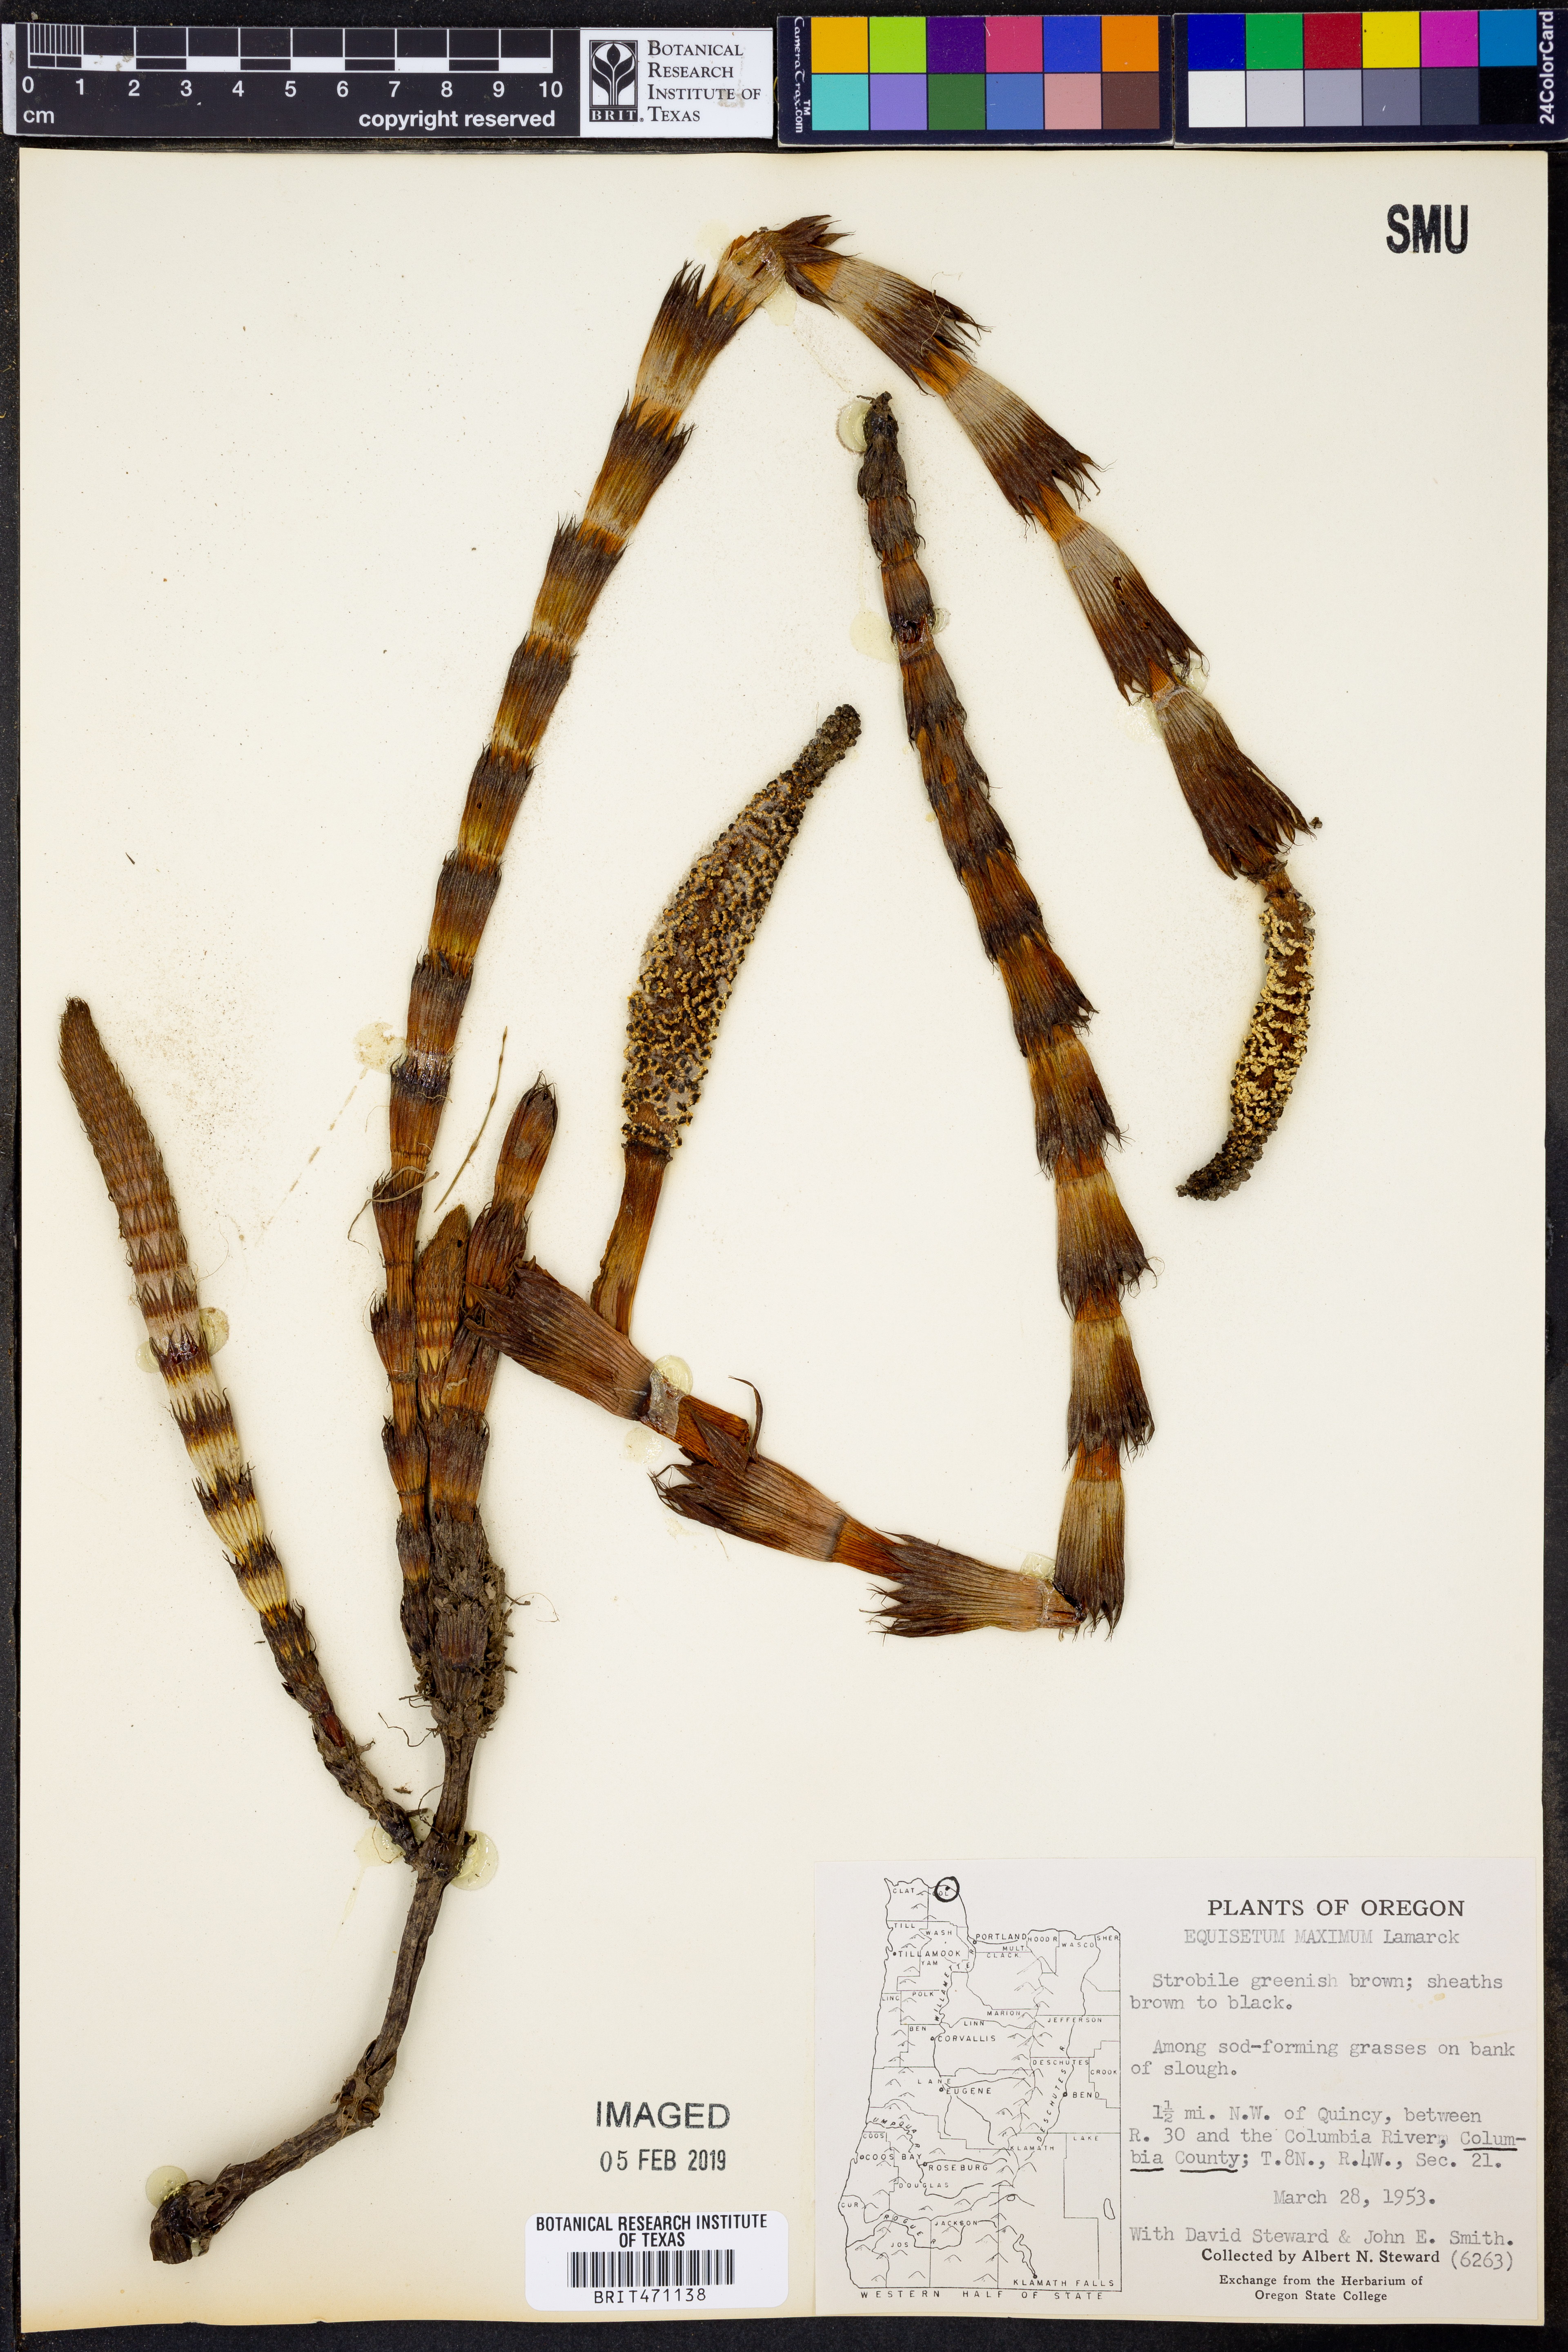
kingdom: Plantae
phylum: Tracheophyta
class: Polypodiopsida
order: Equisetales
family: Equisetaceae
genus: Equisetum
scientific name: Equisetum
